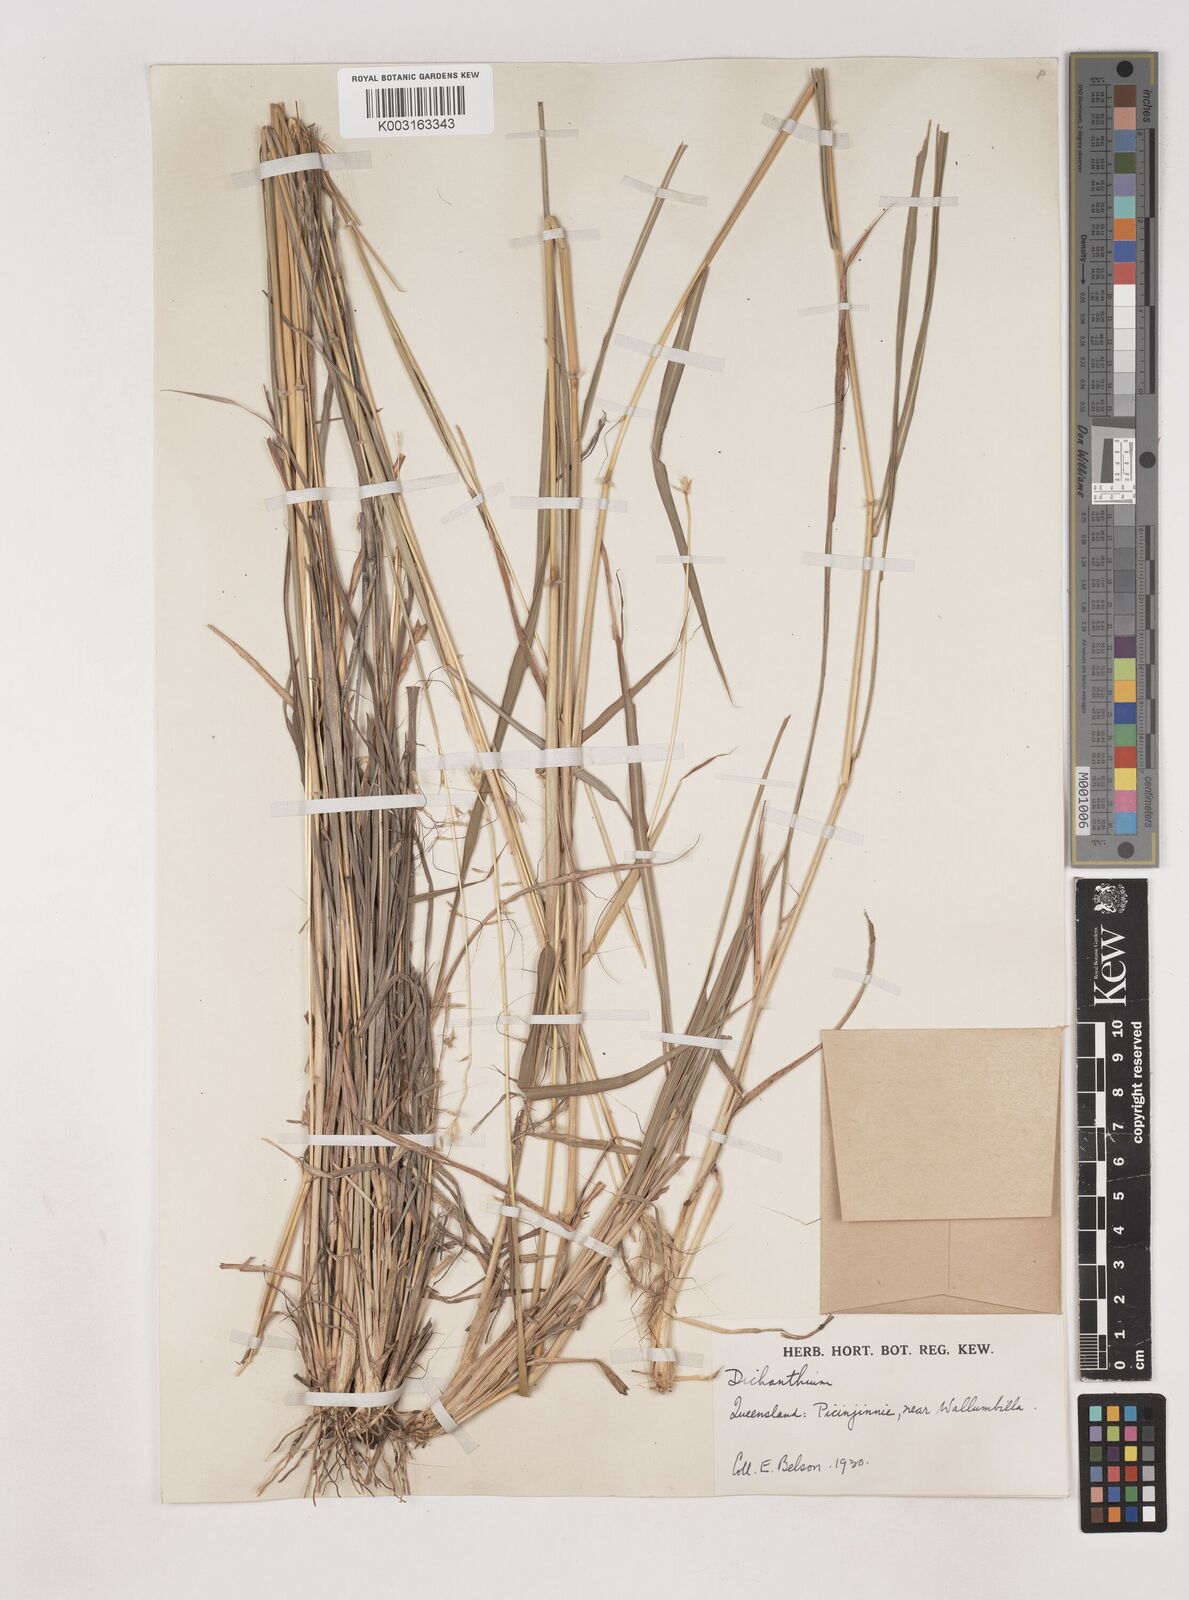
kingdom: Plantae
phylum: Tracheophyta
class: Liliopsida
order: Poales
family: Poaceae
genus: Dichanthium
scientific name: Dichanthium sericeum
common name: Silky bluestem
